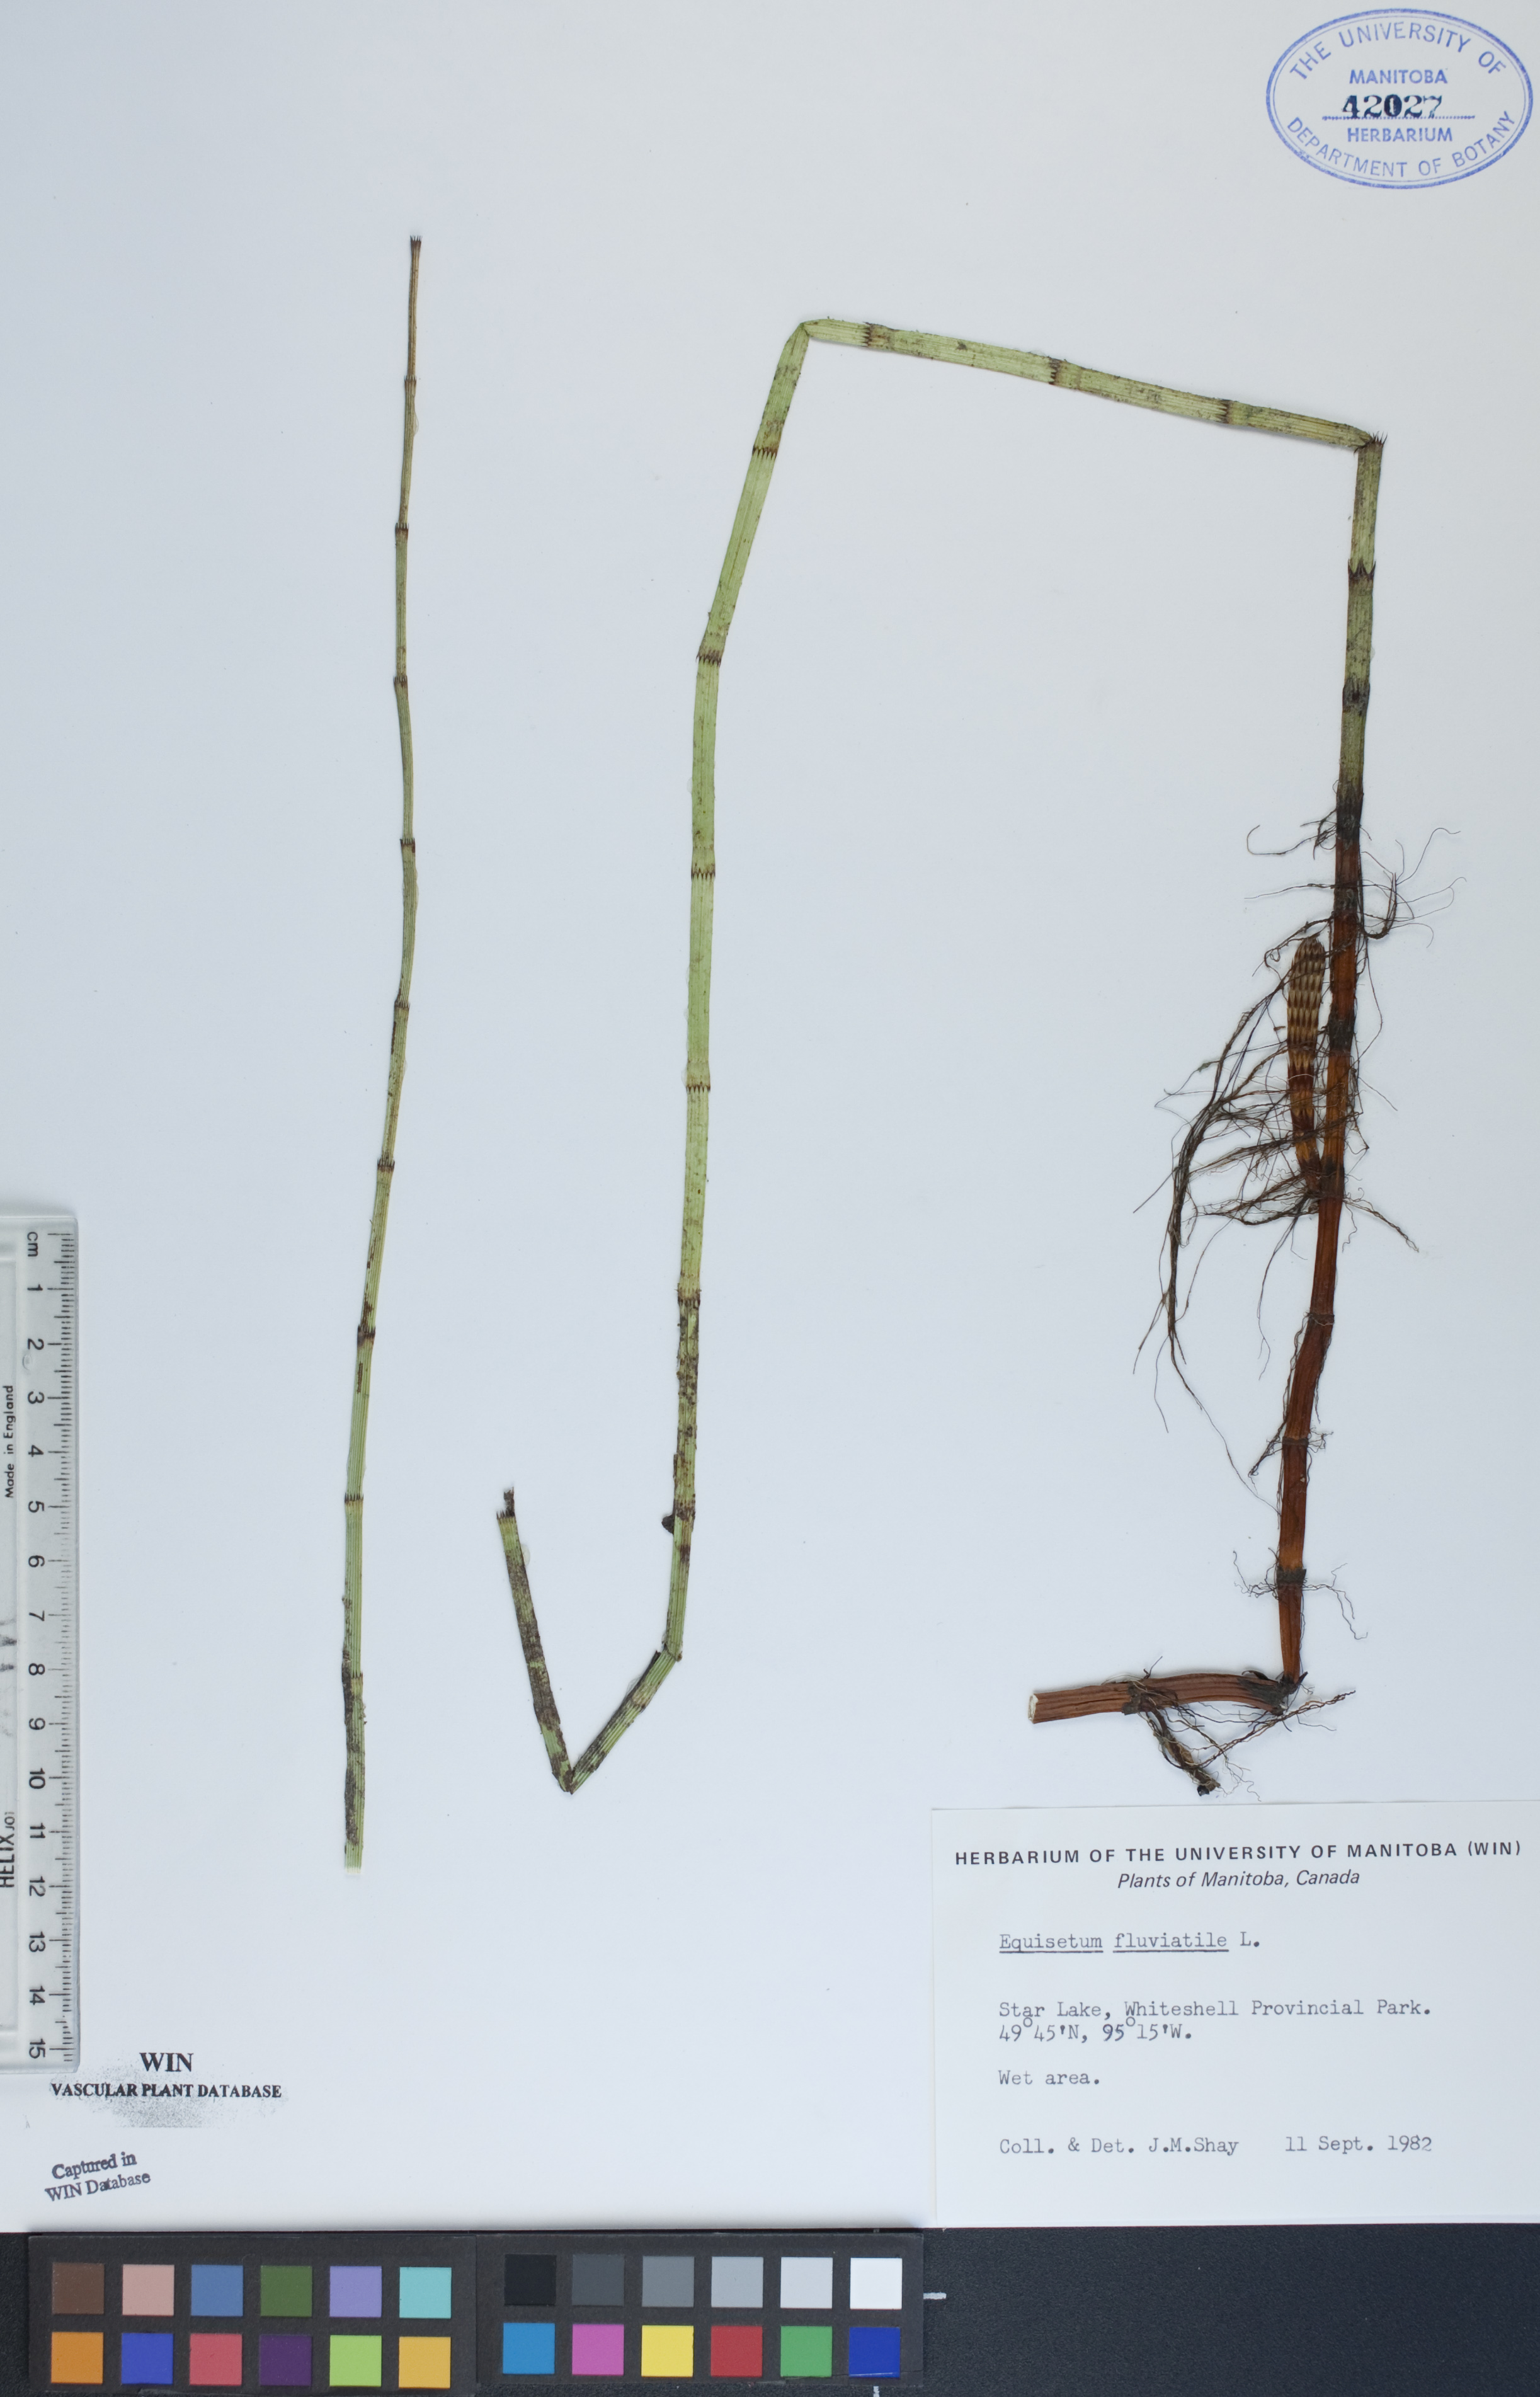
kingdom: Plantae
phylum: Tracheophyta
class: Polypodiopsida
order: Equisetales
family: Equisetaceae
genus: Equisetum
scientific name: Equisetum fluviatile
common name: Water horsetail
